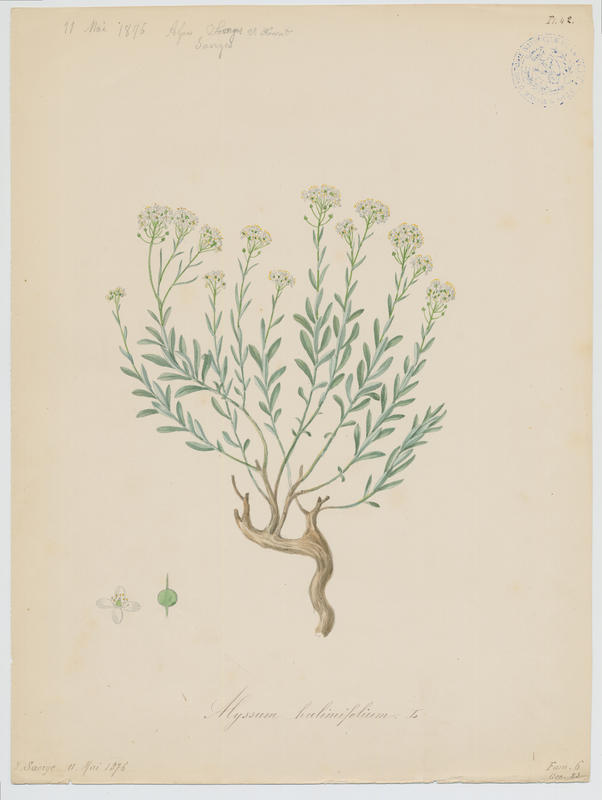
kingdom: Plantae
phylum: Tracheophyta
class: Magnoliopsida
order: Brassicales
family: Brassicaceae
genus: Hormathophylla
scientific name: Hormathophylla ligustica
